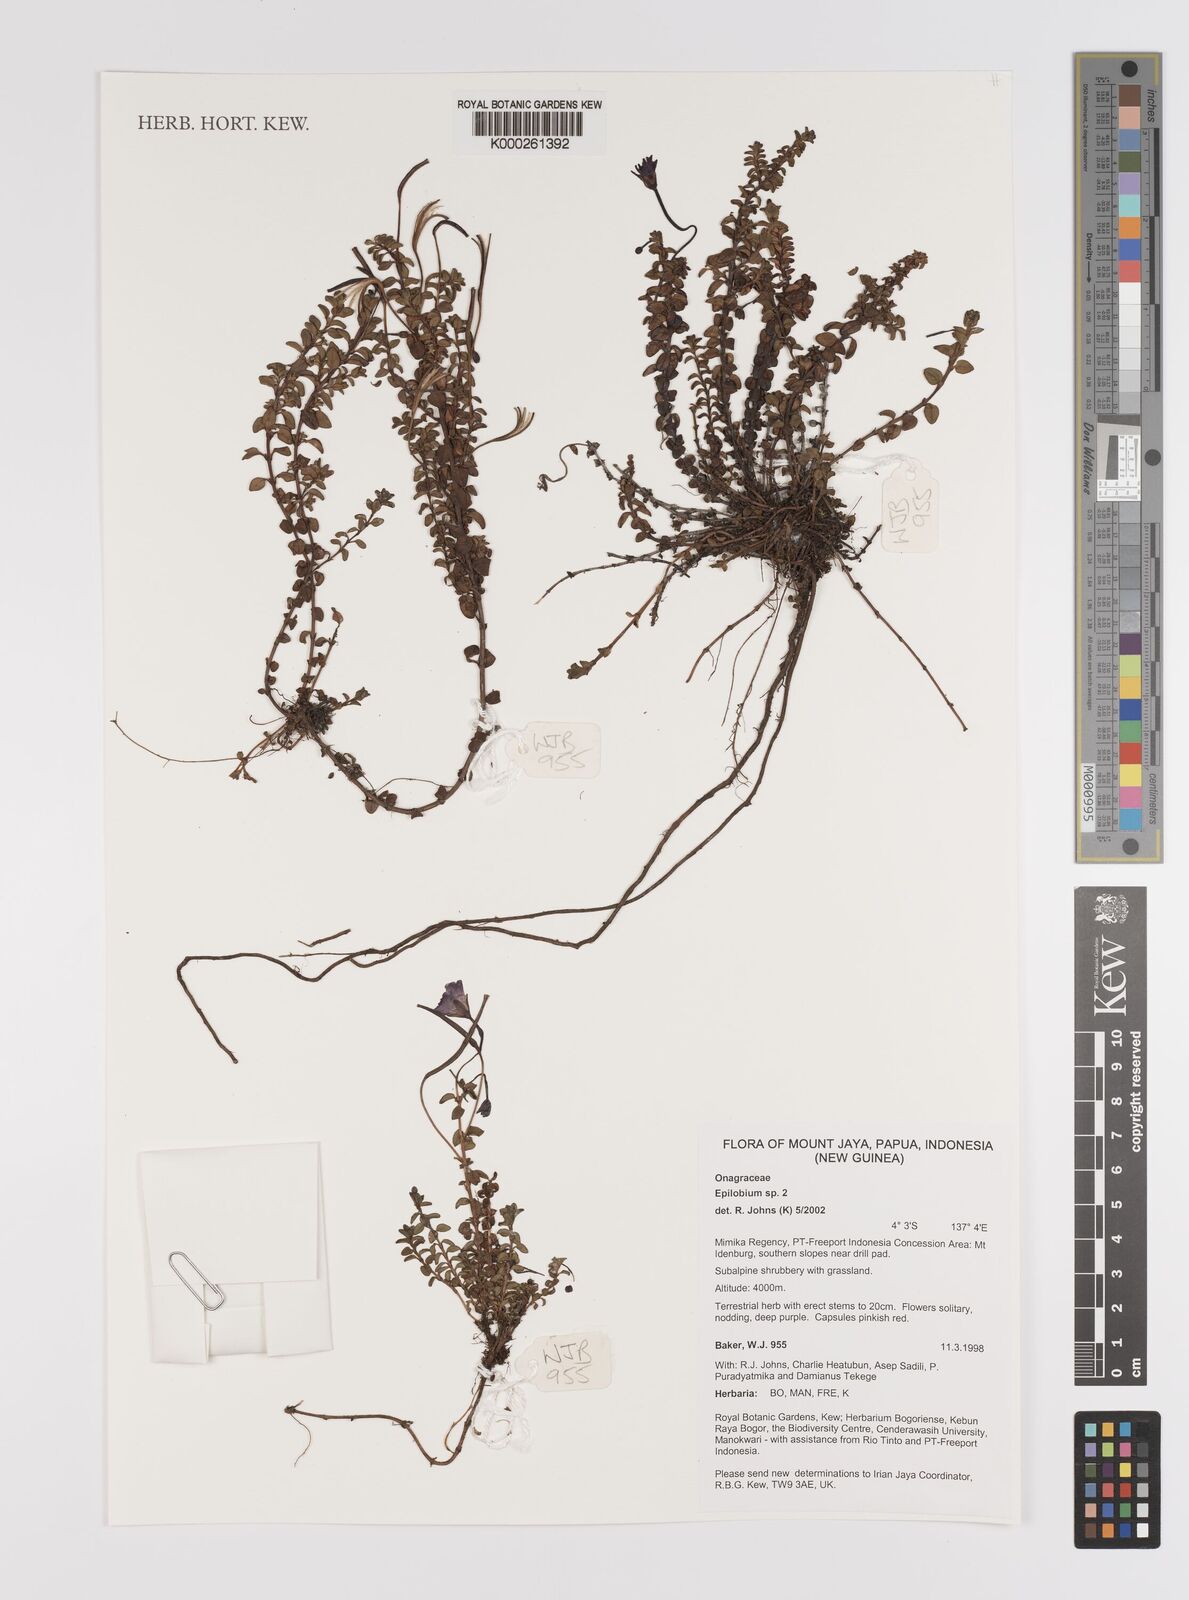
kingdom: Plantae
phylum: Tracheophyta
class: Magnoliopsida
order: Myrtales
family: Onagraceae
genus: Epilobium
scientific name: Epilobium
